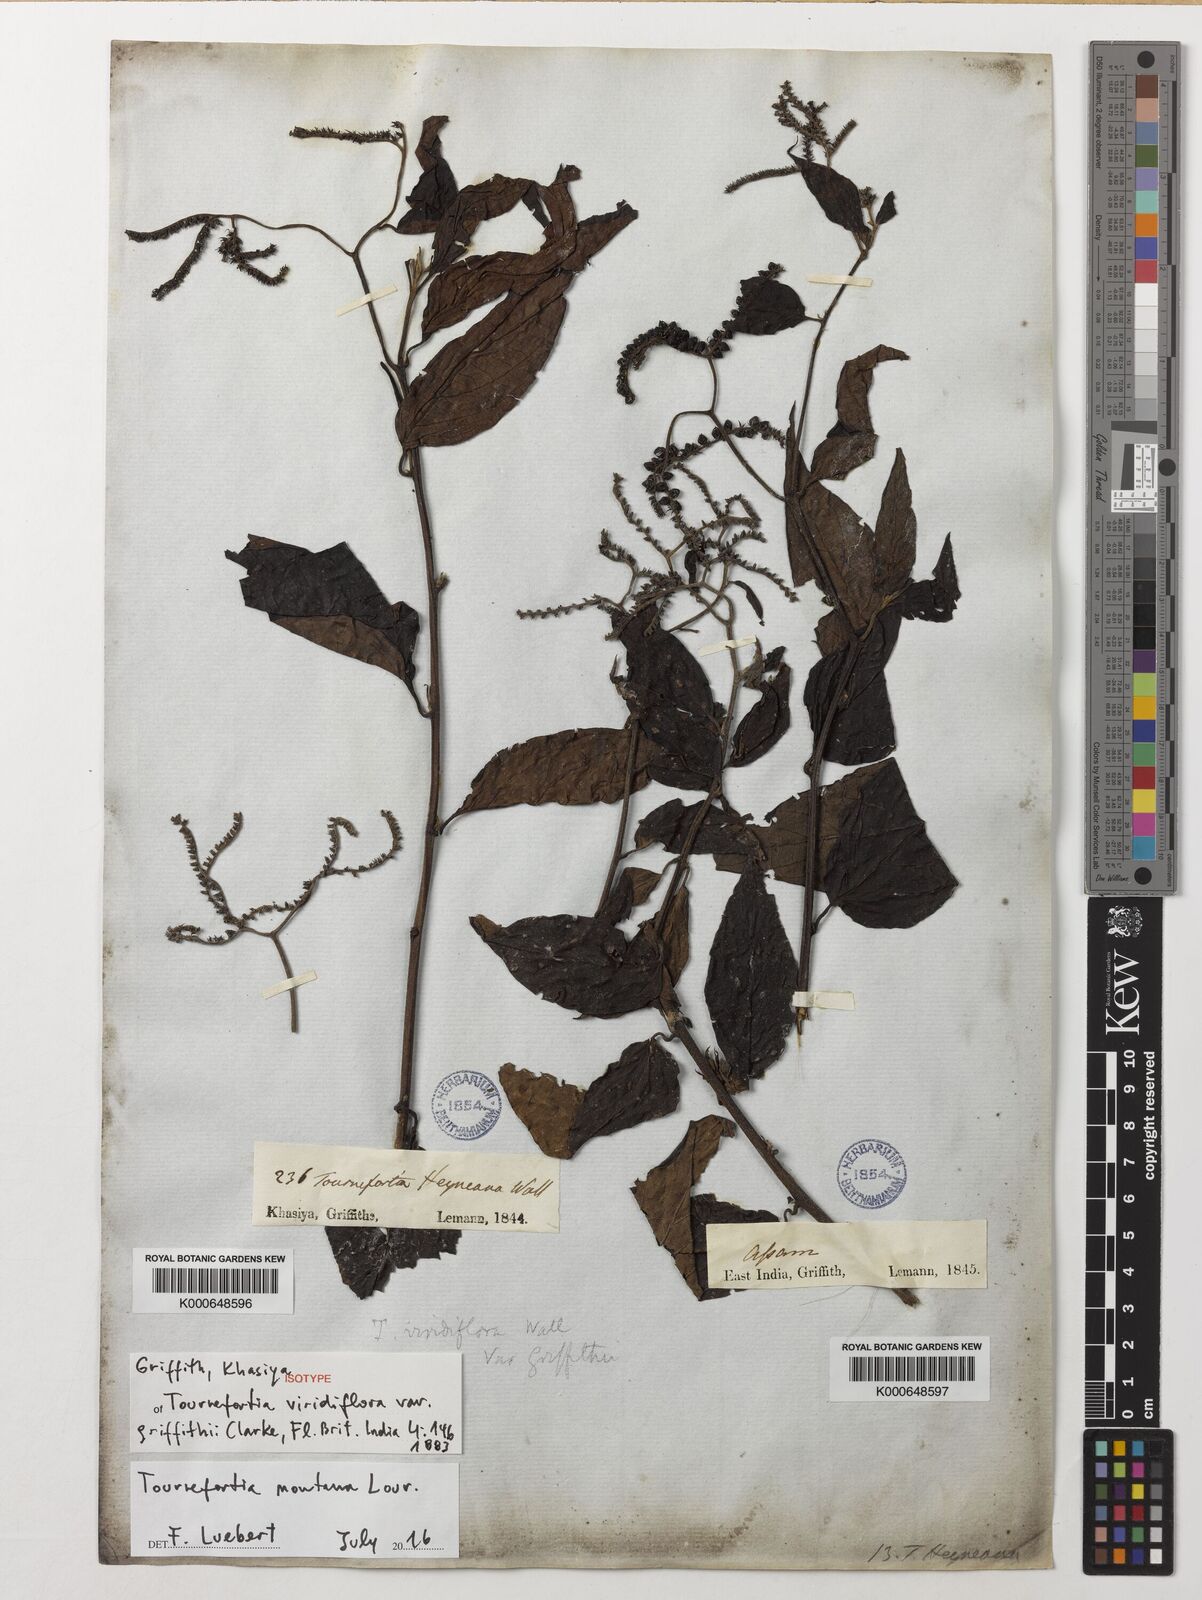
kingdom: Plantae
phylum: Tracheophyta
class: Magnoliopsida
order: Boraginales
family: Heliotropiaceae
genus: Tournefortia
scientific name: Tournefortia montana
